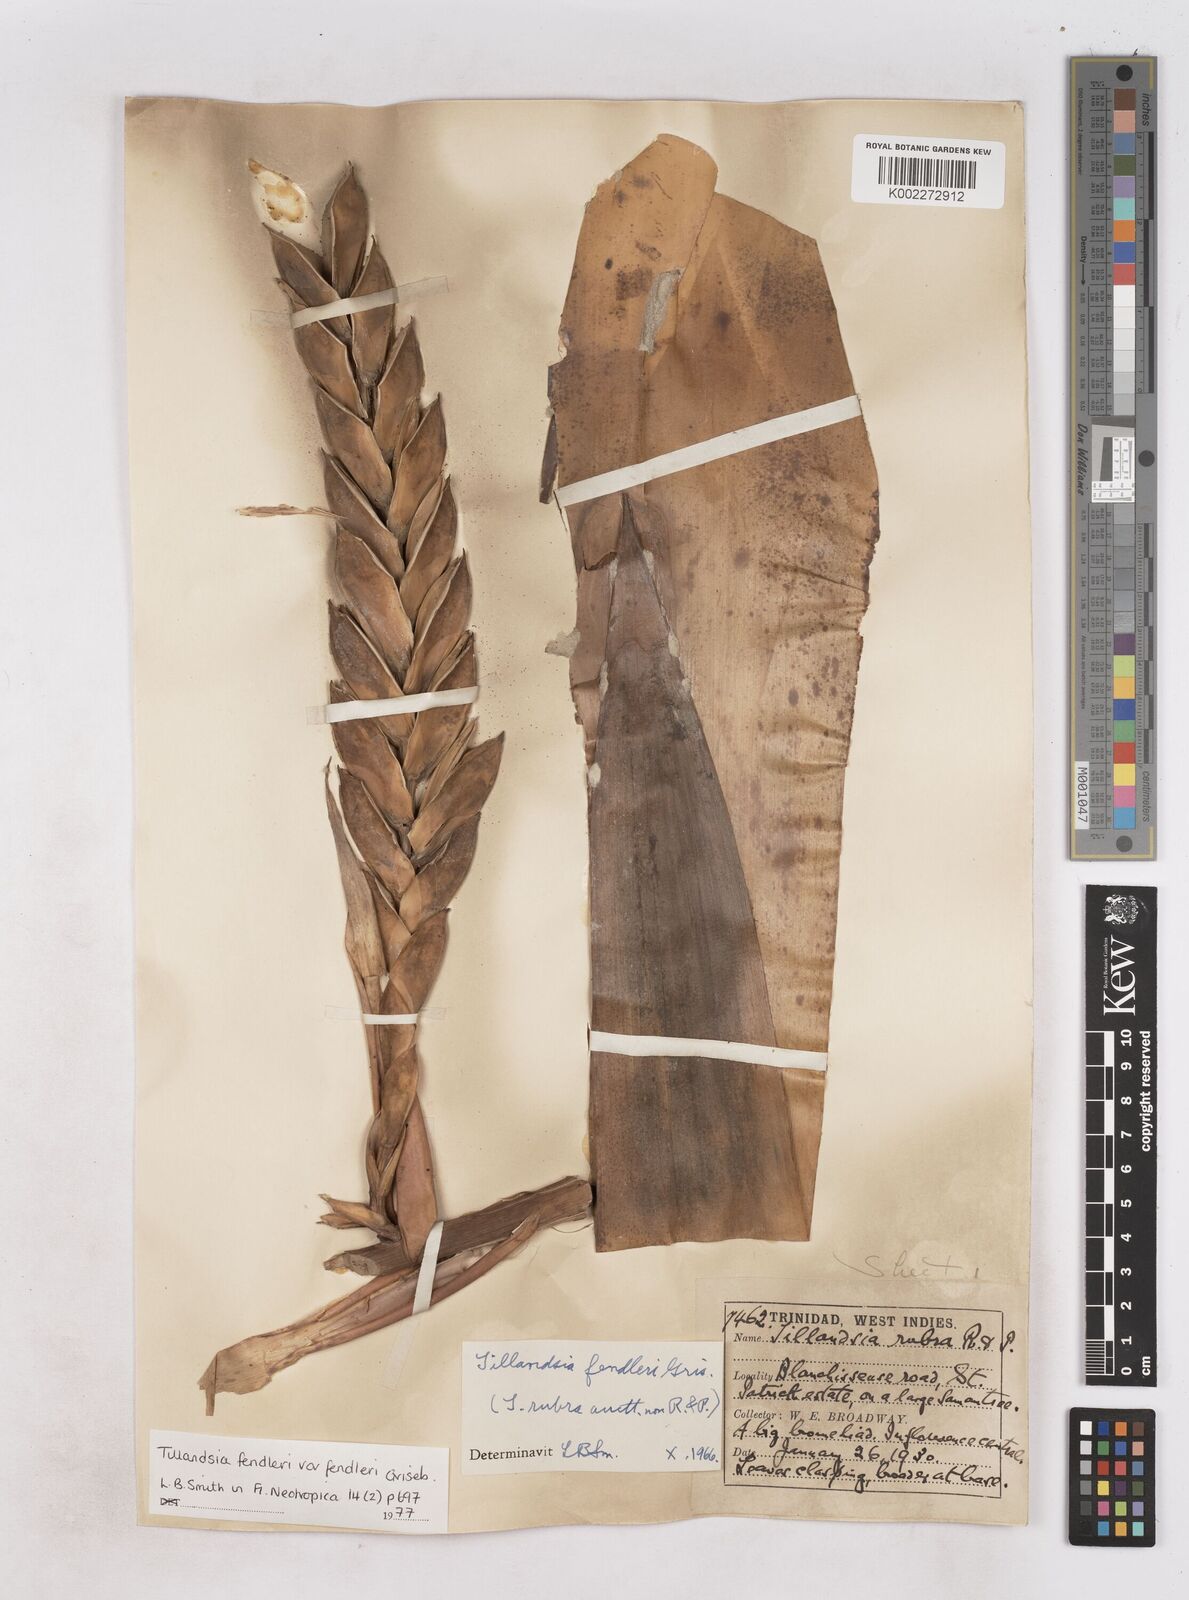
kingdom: Plantae
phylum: Tracheophyta
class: Liliopsida
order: Poales
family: Bromeliaceae
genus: Tillandsia
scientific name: Tillandsia fendleri
